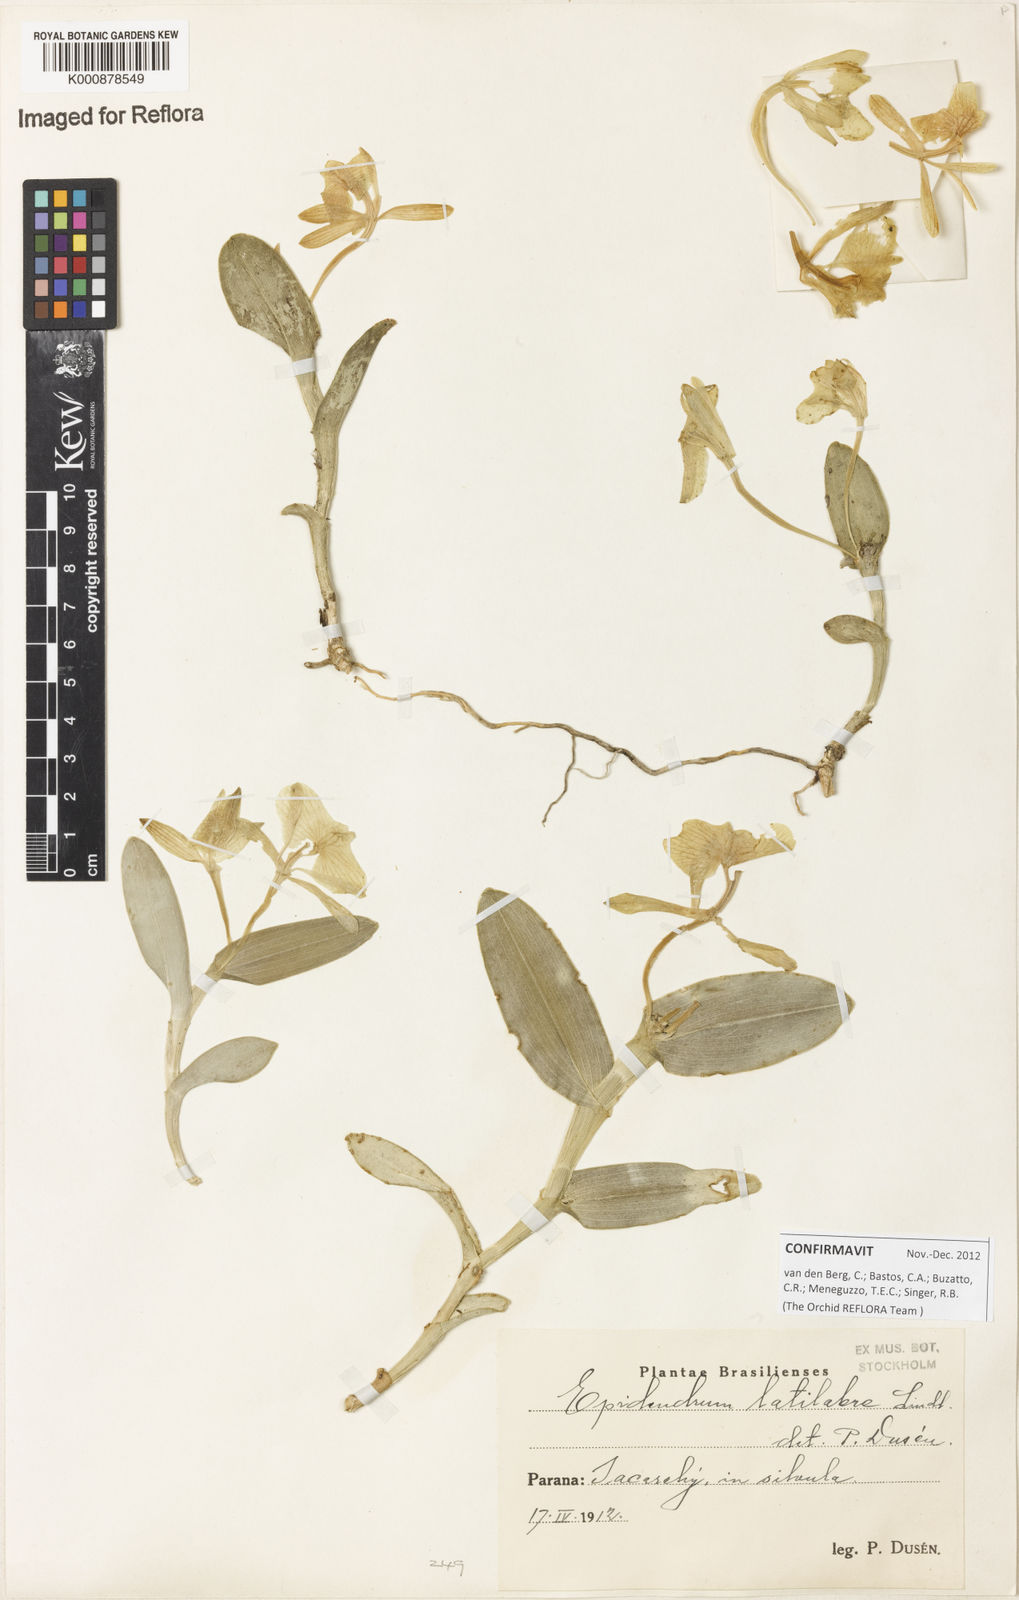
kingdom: Plantae
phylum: Tracheophyta
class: Liliopsida
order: Asparagales
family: Orchidaceae
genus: Epidendrum
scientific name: Epidendrum latilabre
